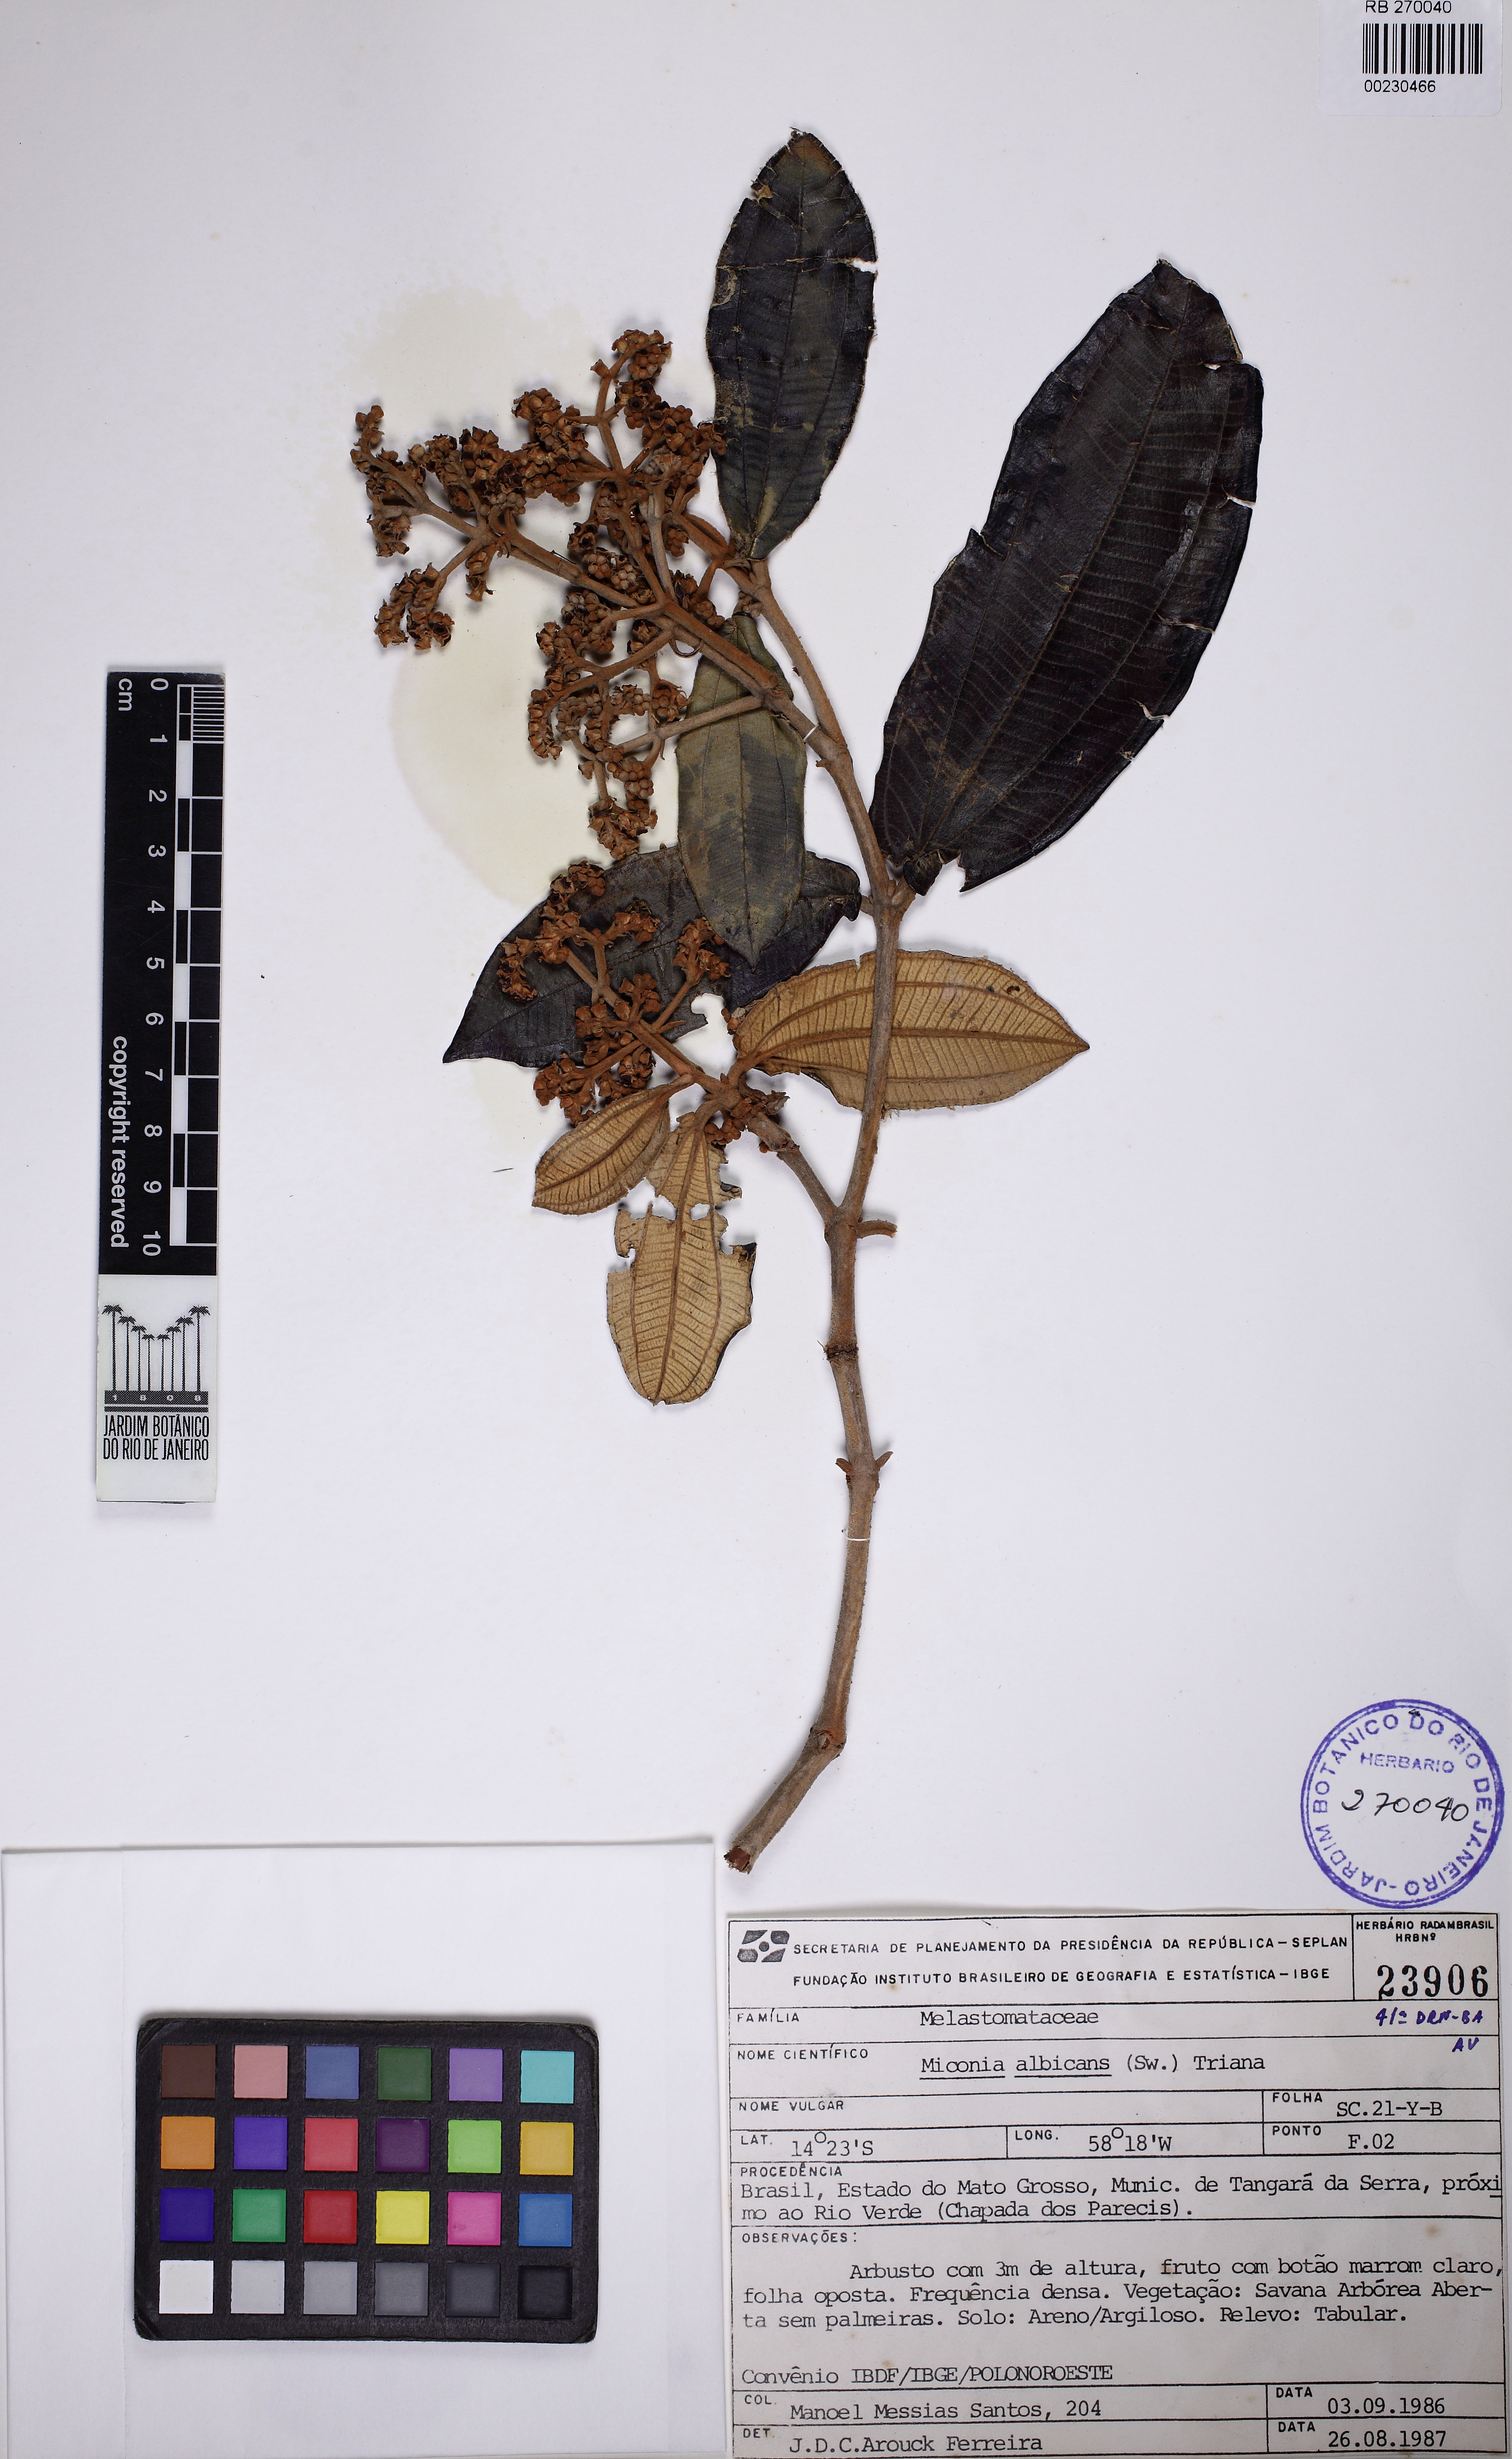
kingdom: Plantae
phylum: Tracheophyta
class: Magnoliopsida
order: Myrtales
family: Melastomataceae
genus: Miconia
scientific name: Miconia albicans
